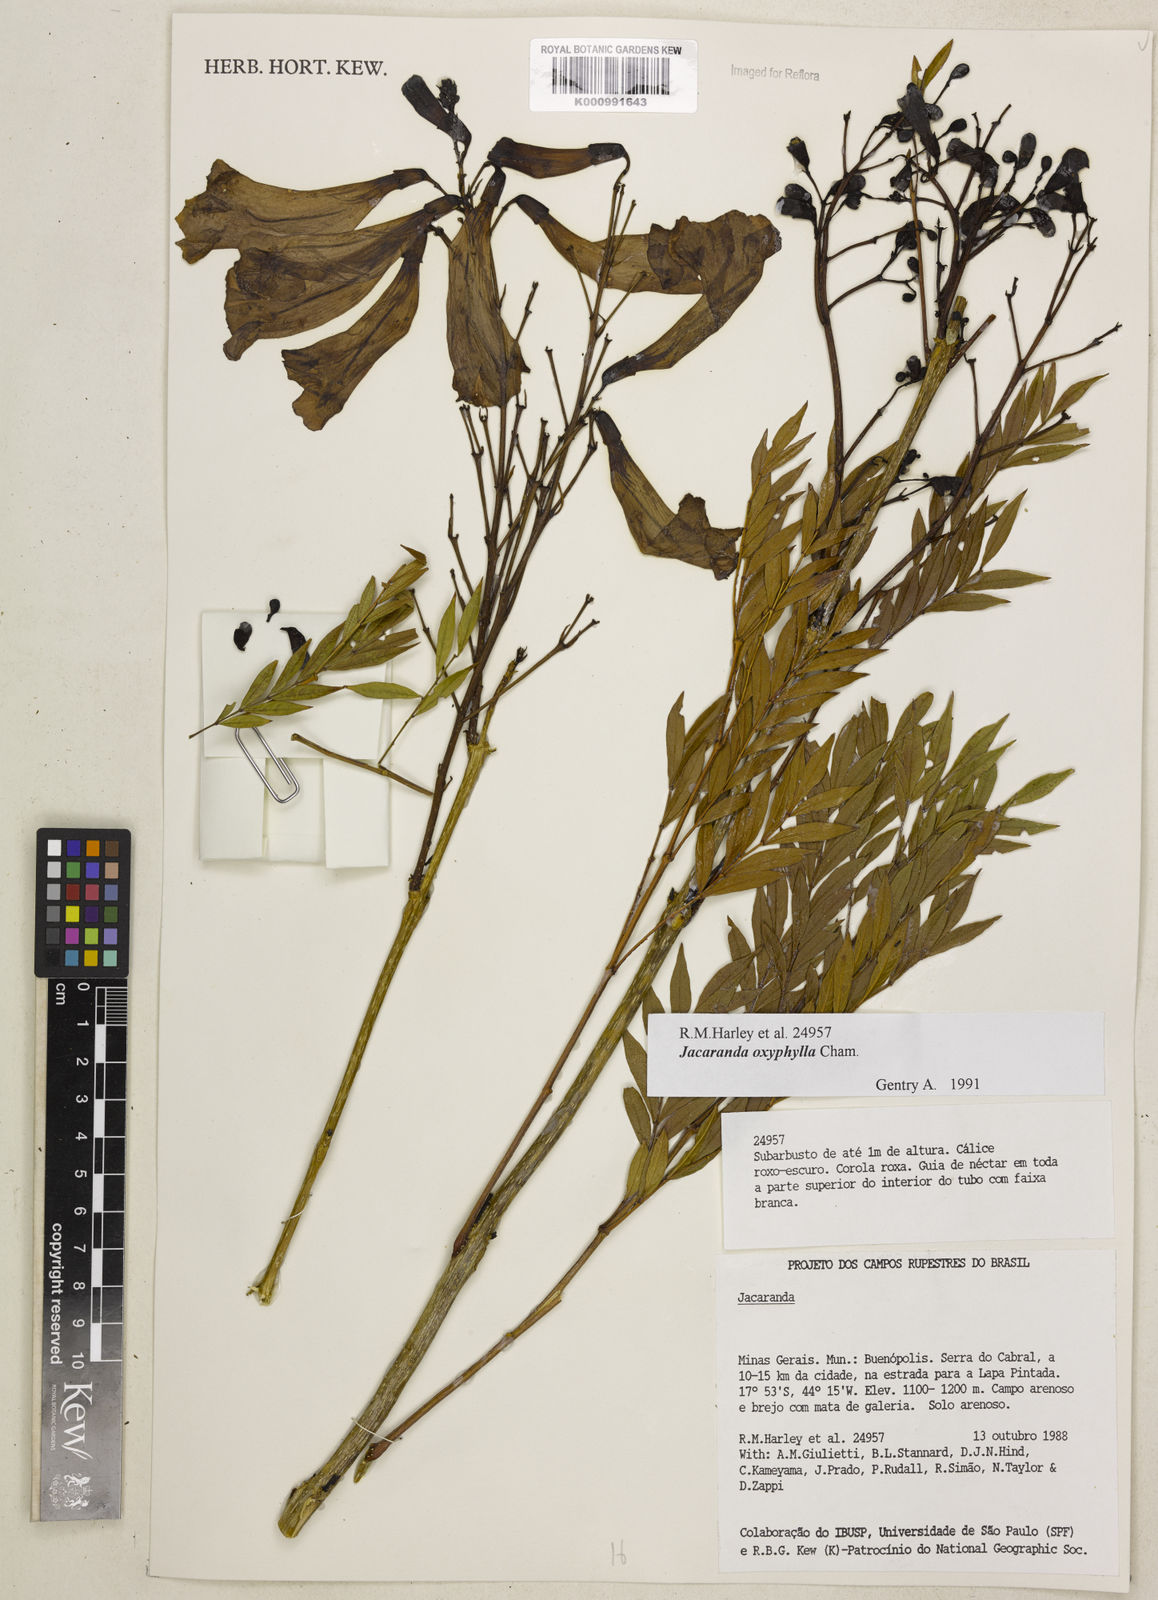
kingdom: Plantae
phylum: Tracheophyta
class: Magnoliopsida
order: Lamiales
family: Bignoniaceae
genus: Jacaranda
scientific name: Jacaranda caroba
